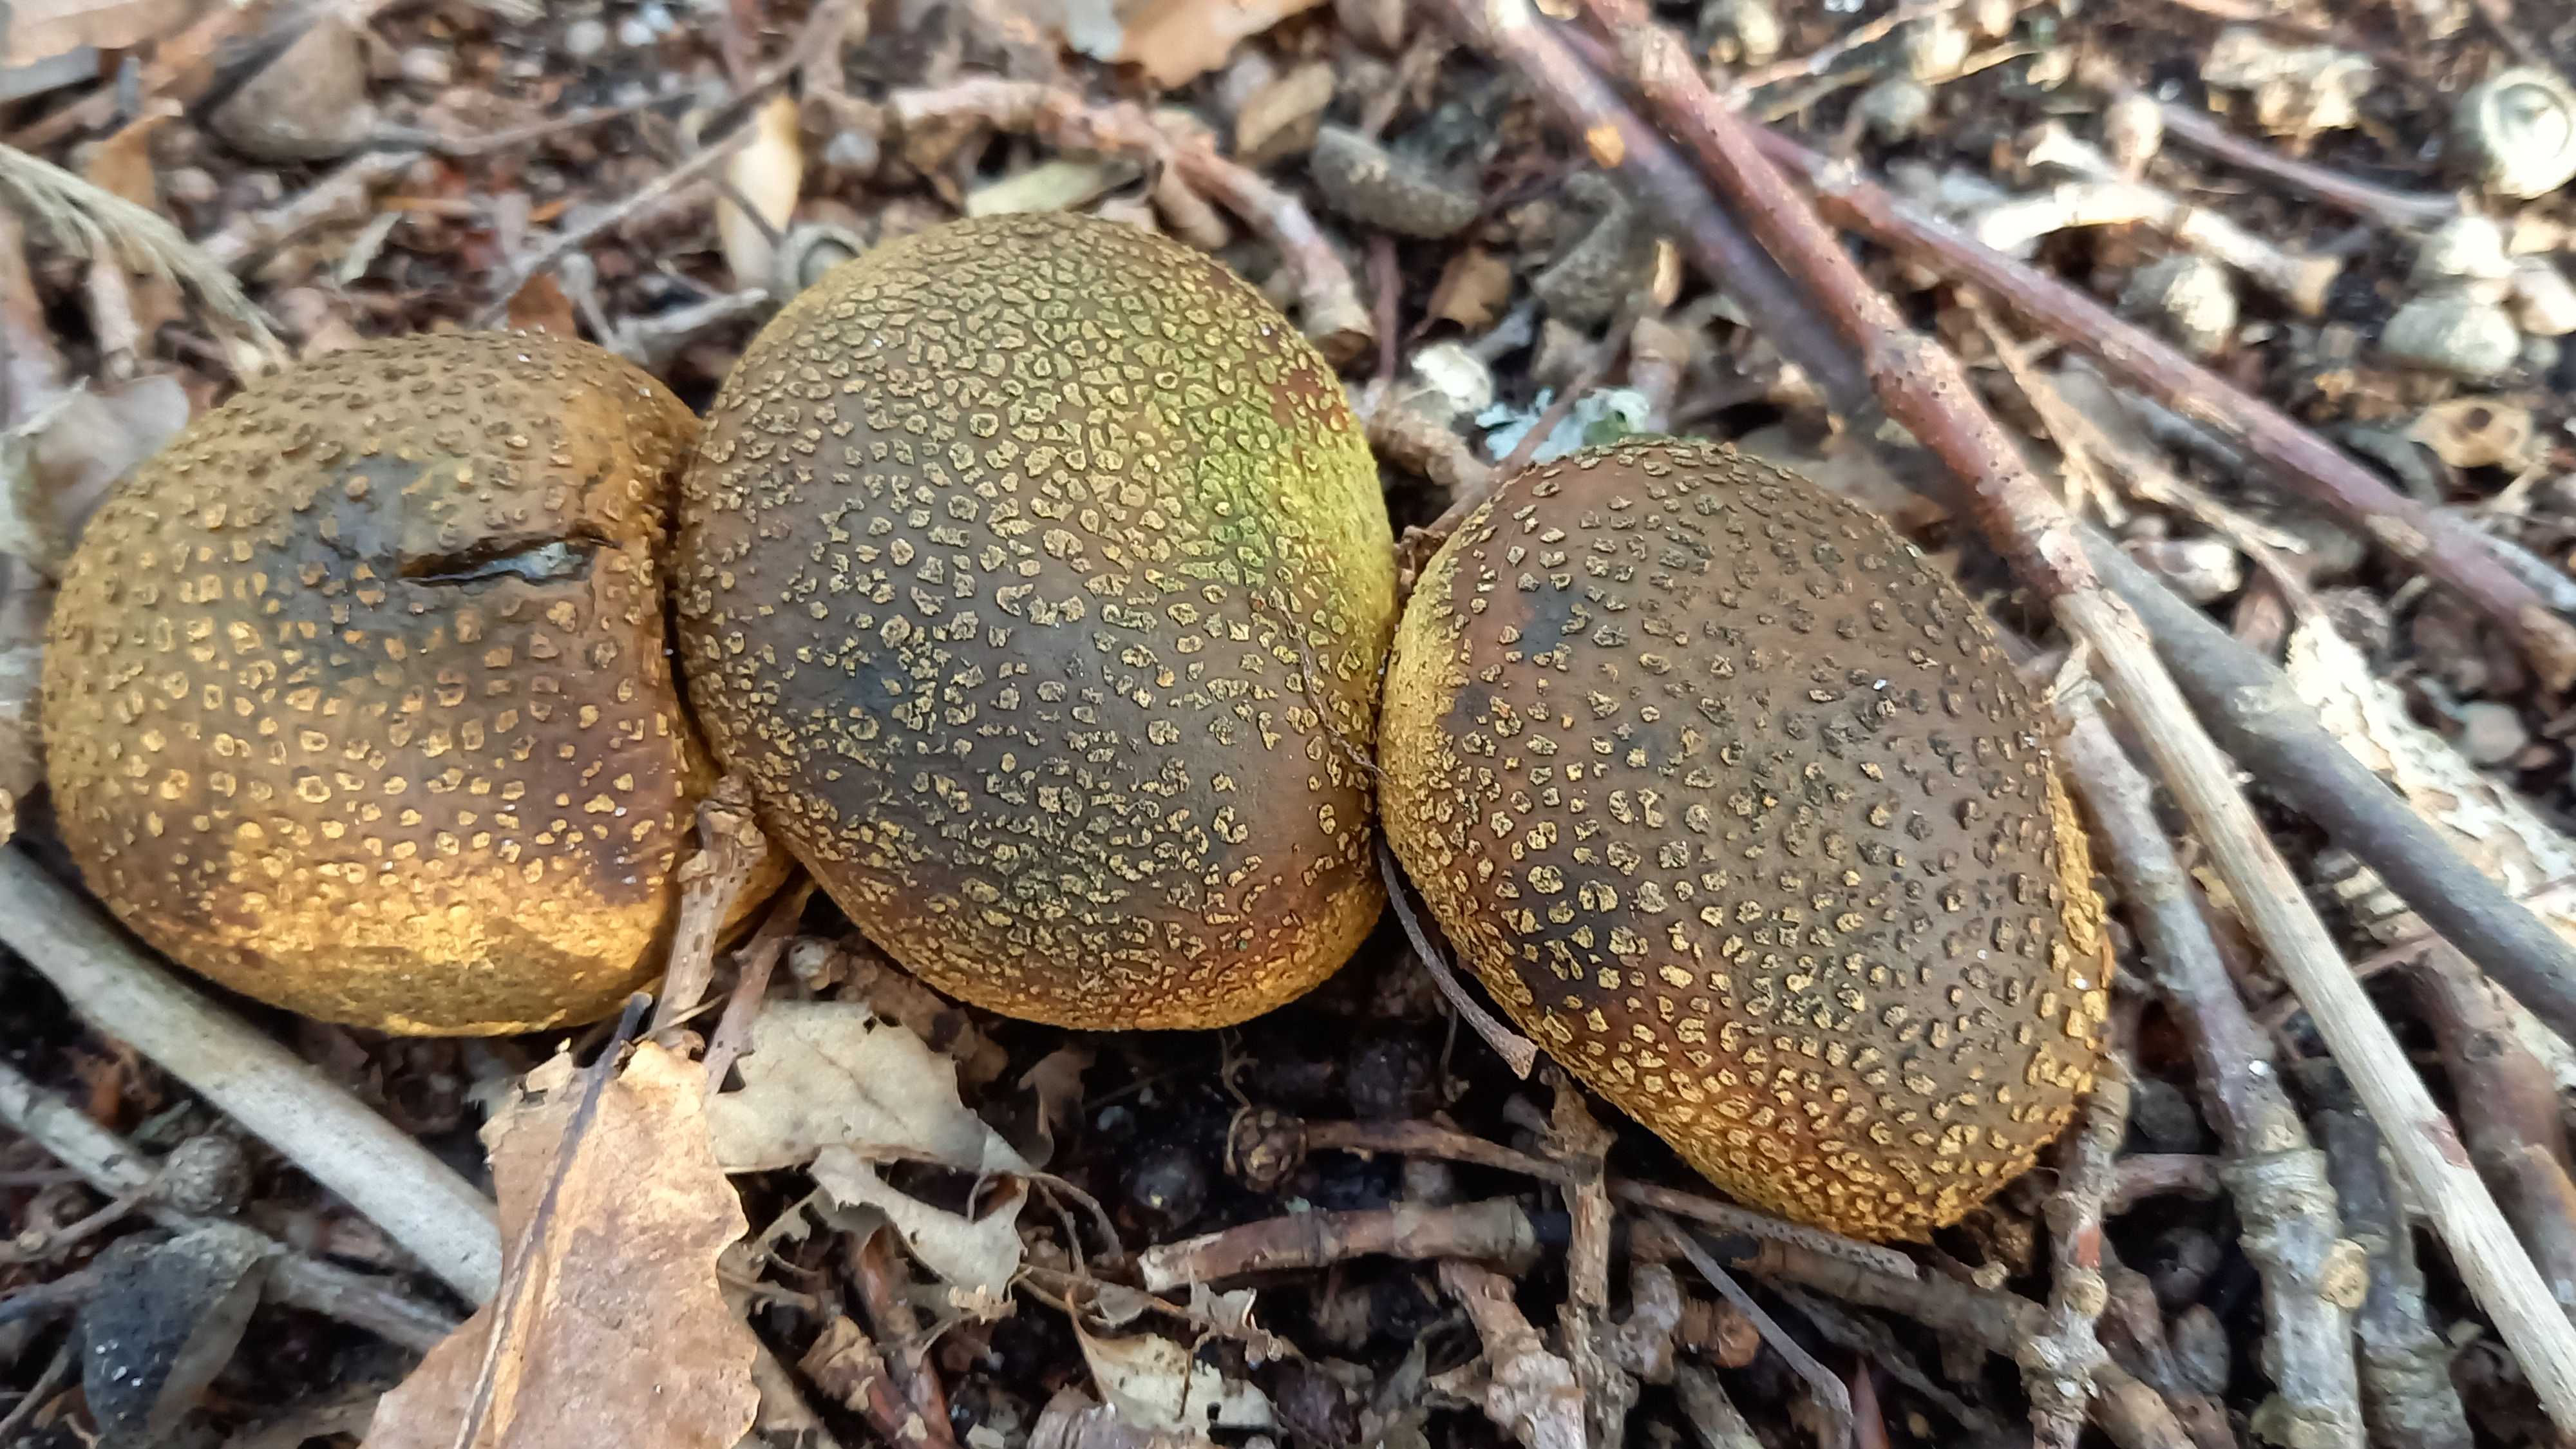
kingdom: Fungi
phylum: Basidiomycota
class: Agaricomycetes
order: Boletales
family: Sclerodermataceae
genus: Scleroderma
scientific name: Scleroderma citrinum
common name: almindelig bruskbold
